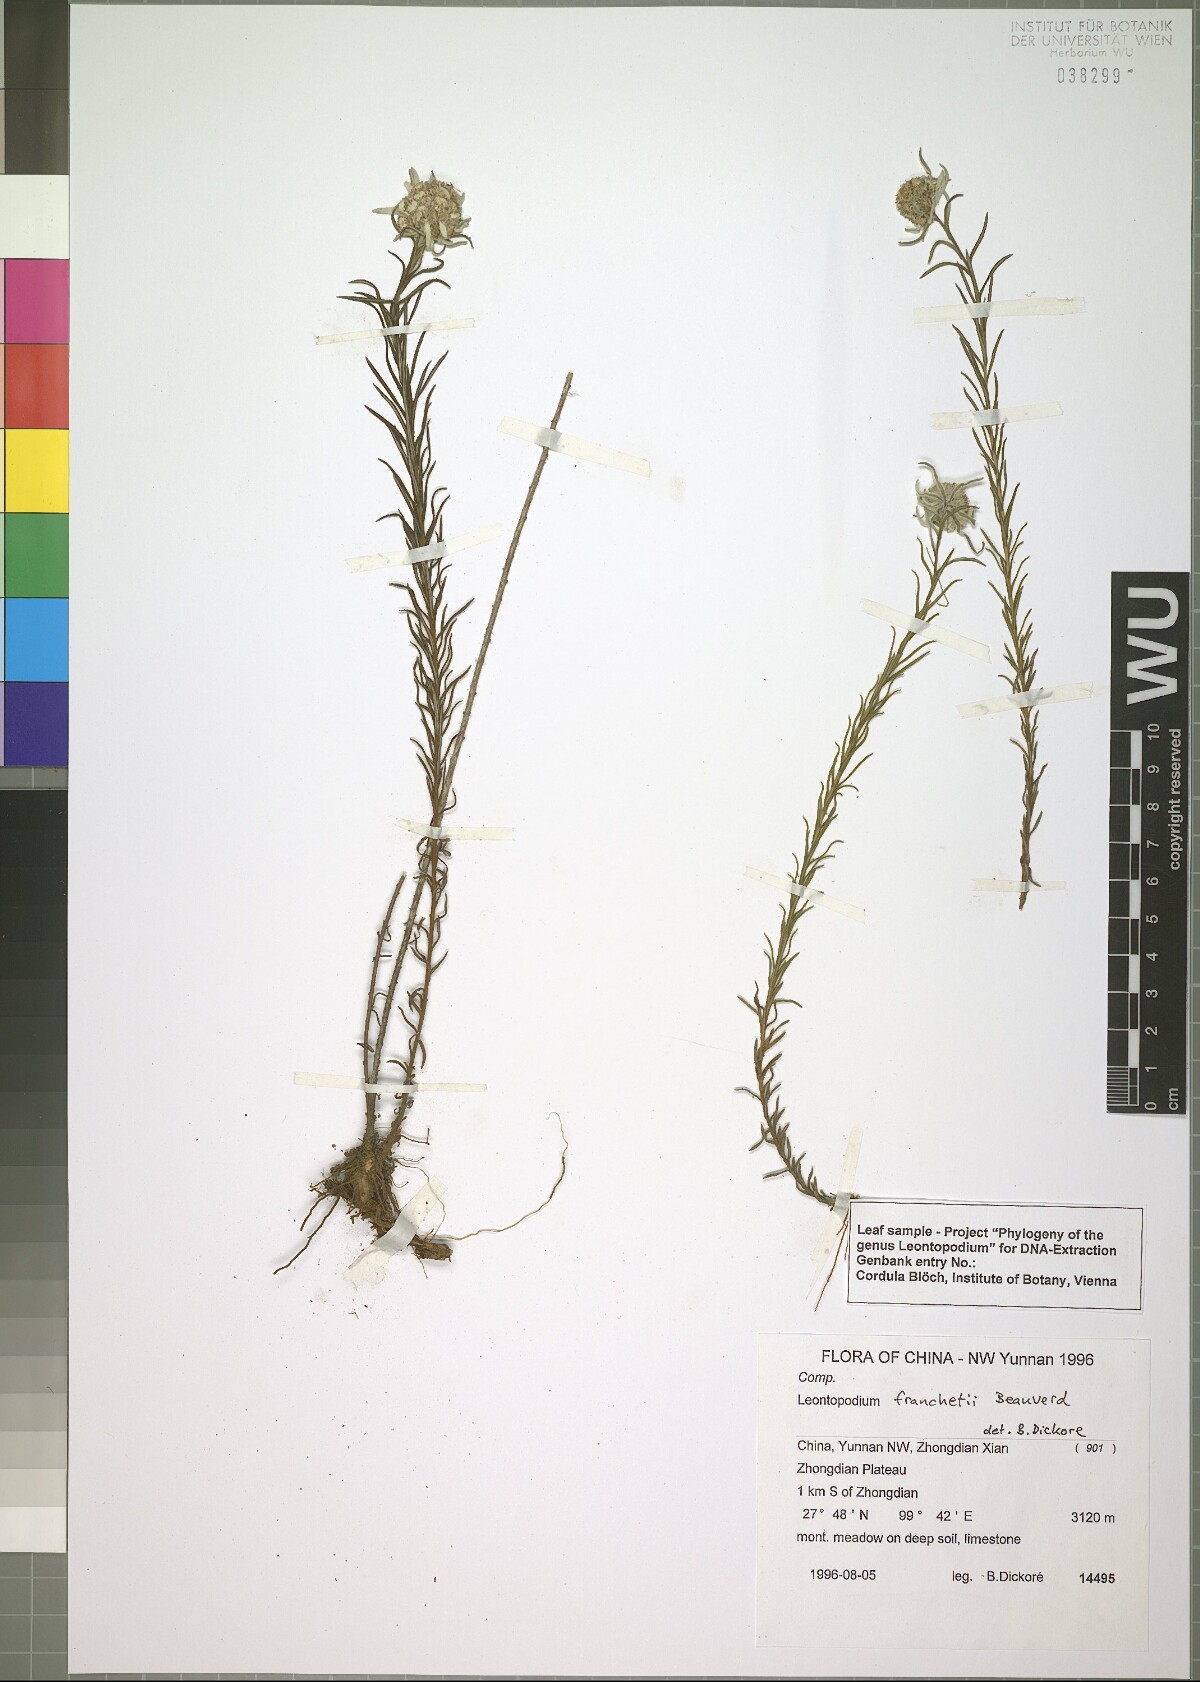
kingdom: Plantae
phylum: Tracheophyta
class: Magnoliopsida
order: Asterales
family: Asteraceae
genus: Leontopodium
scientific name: Leontopodium franchetii
